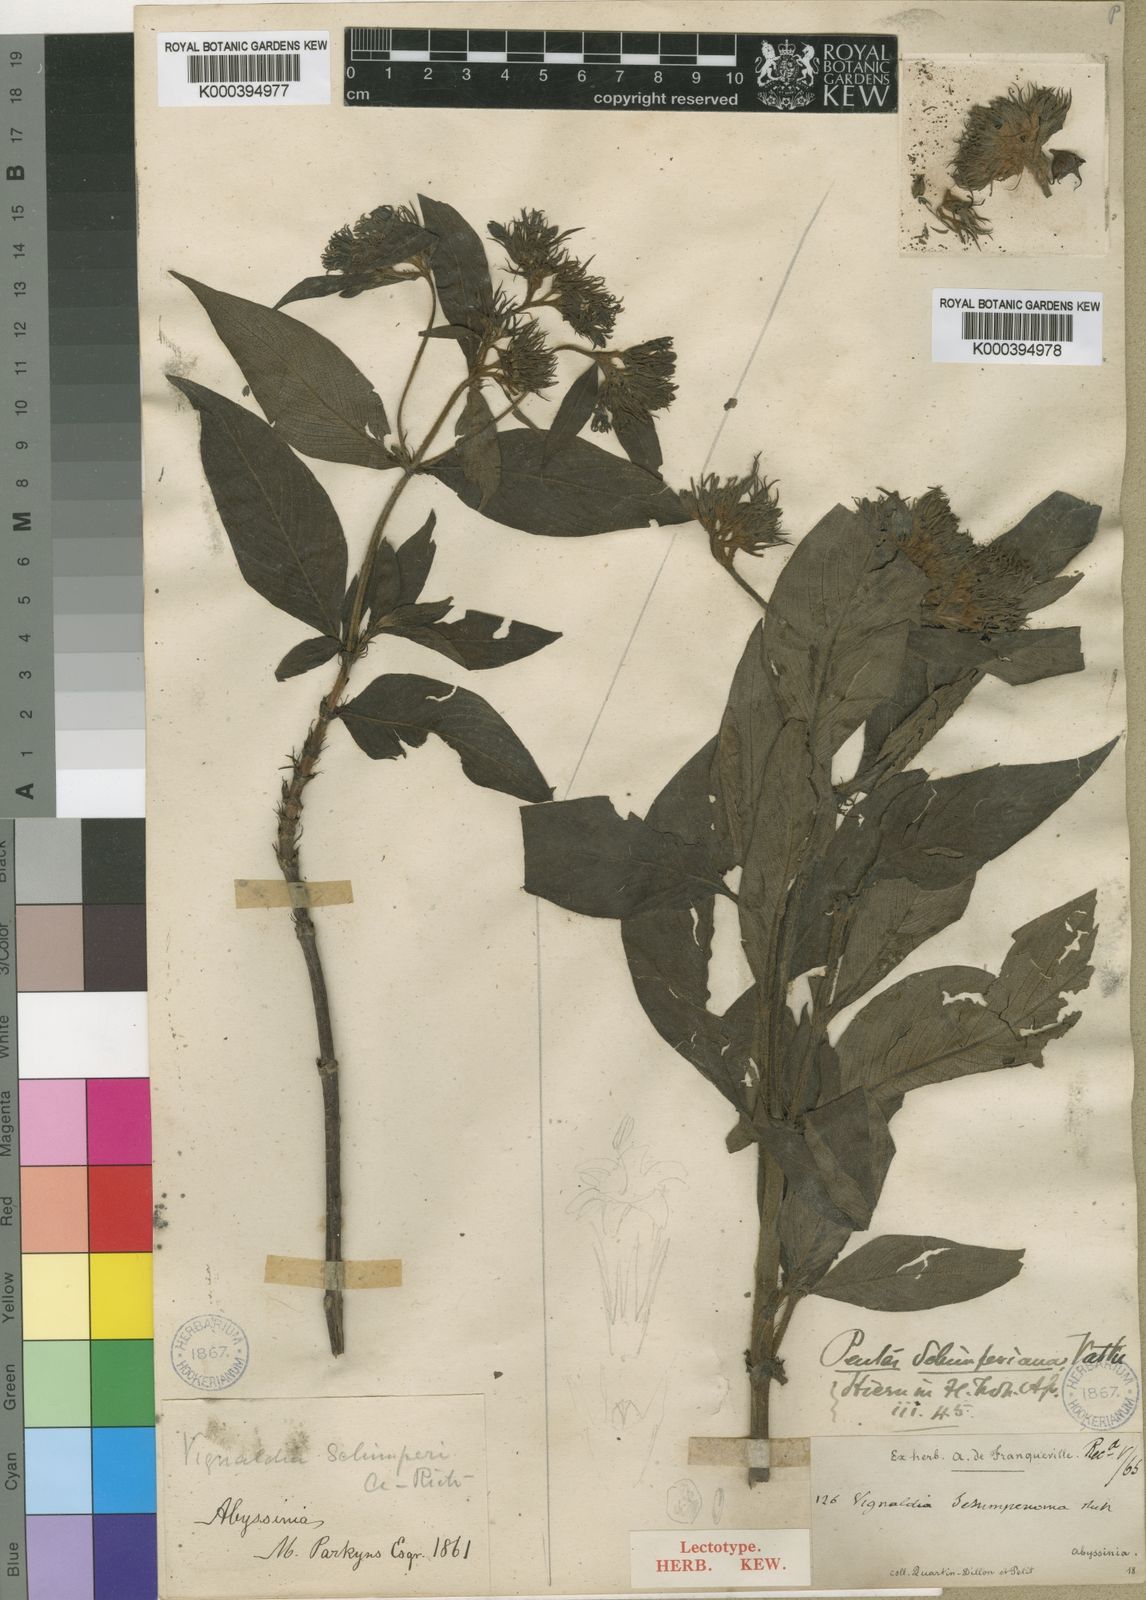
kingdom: Plantae
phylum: Tracheophyta
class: Magnoliopsida
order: Gentianales
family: Rubiaceae
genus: Phyllopentas
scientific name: Phyllopentas schimperi
